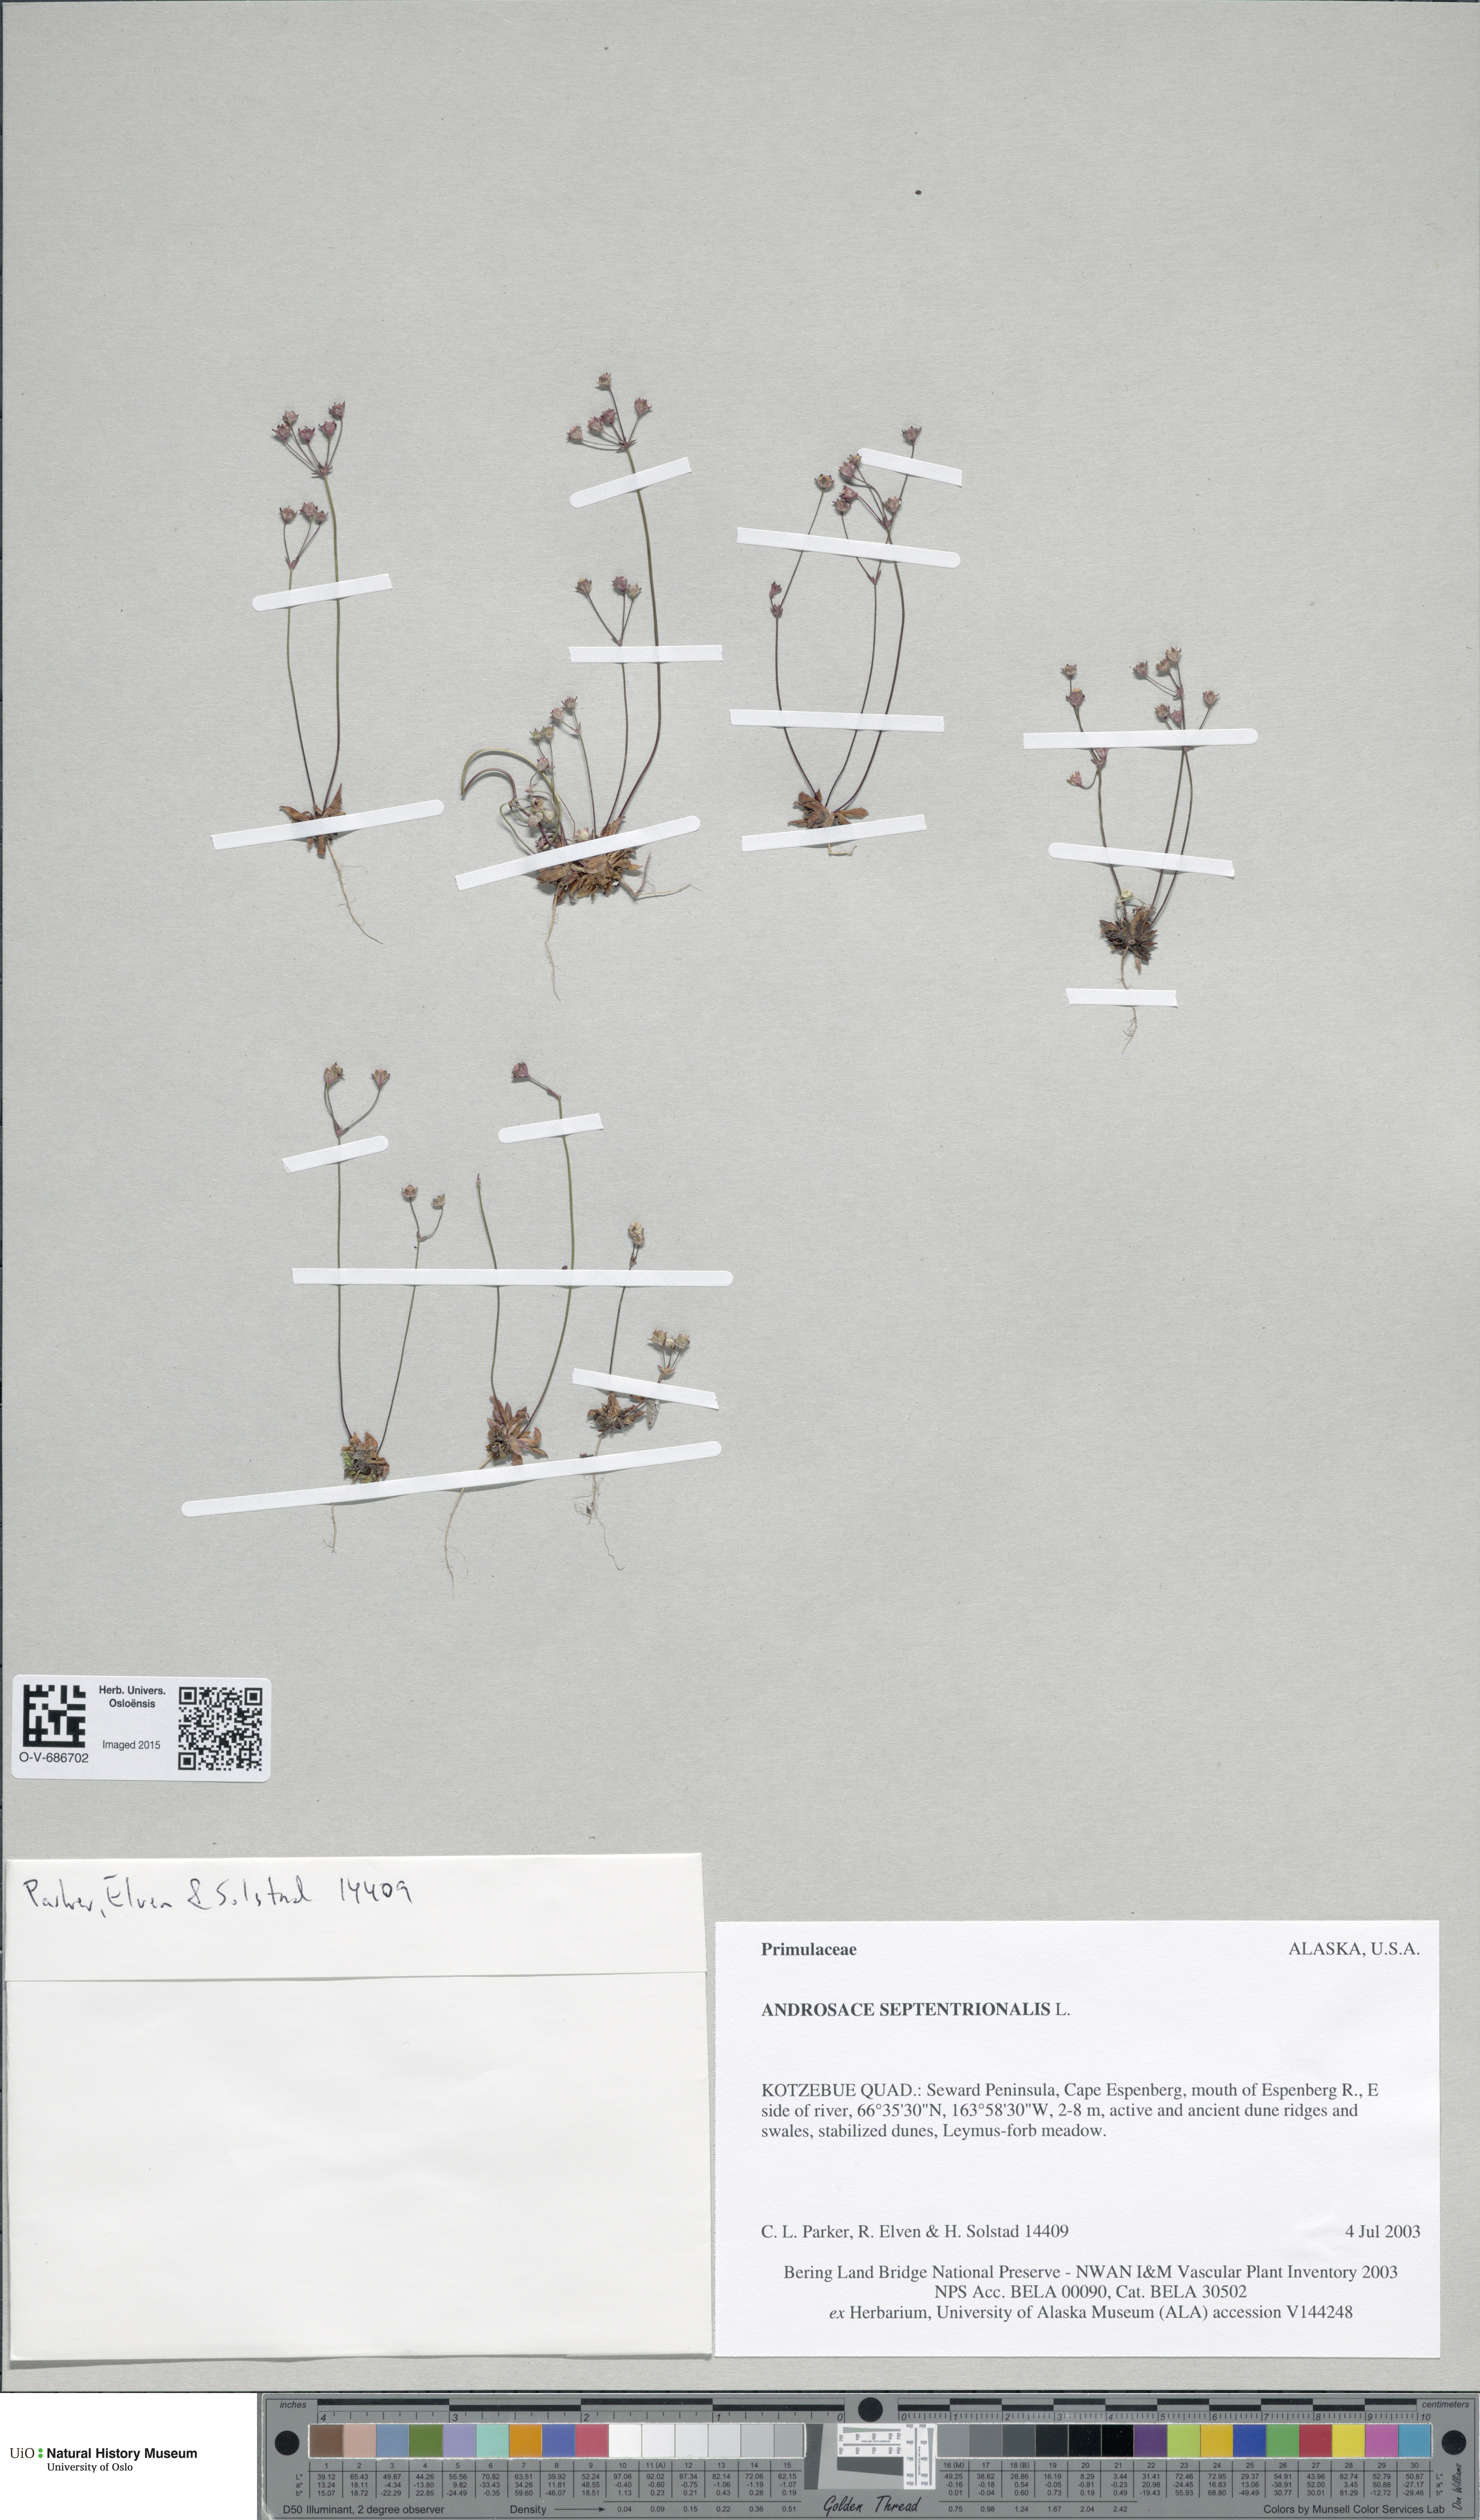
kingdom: Plantae
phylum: Tracheophyta
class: Magnoliopsida
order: Ericales
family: Primulaceae
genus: Androsace
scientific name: Androsace septentrionalis
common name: Hairy northern fairy-candelabra
